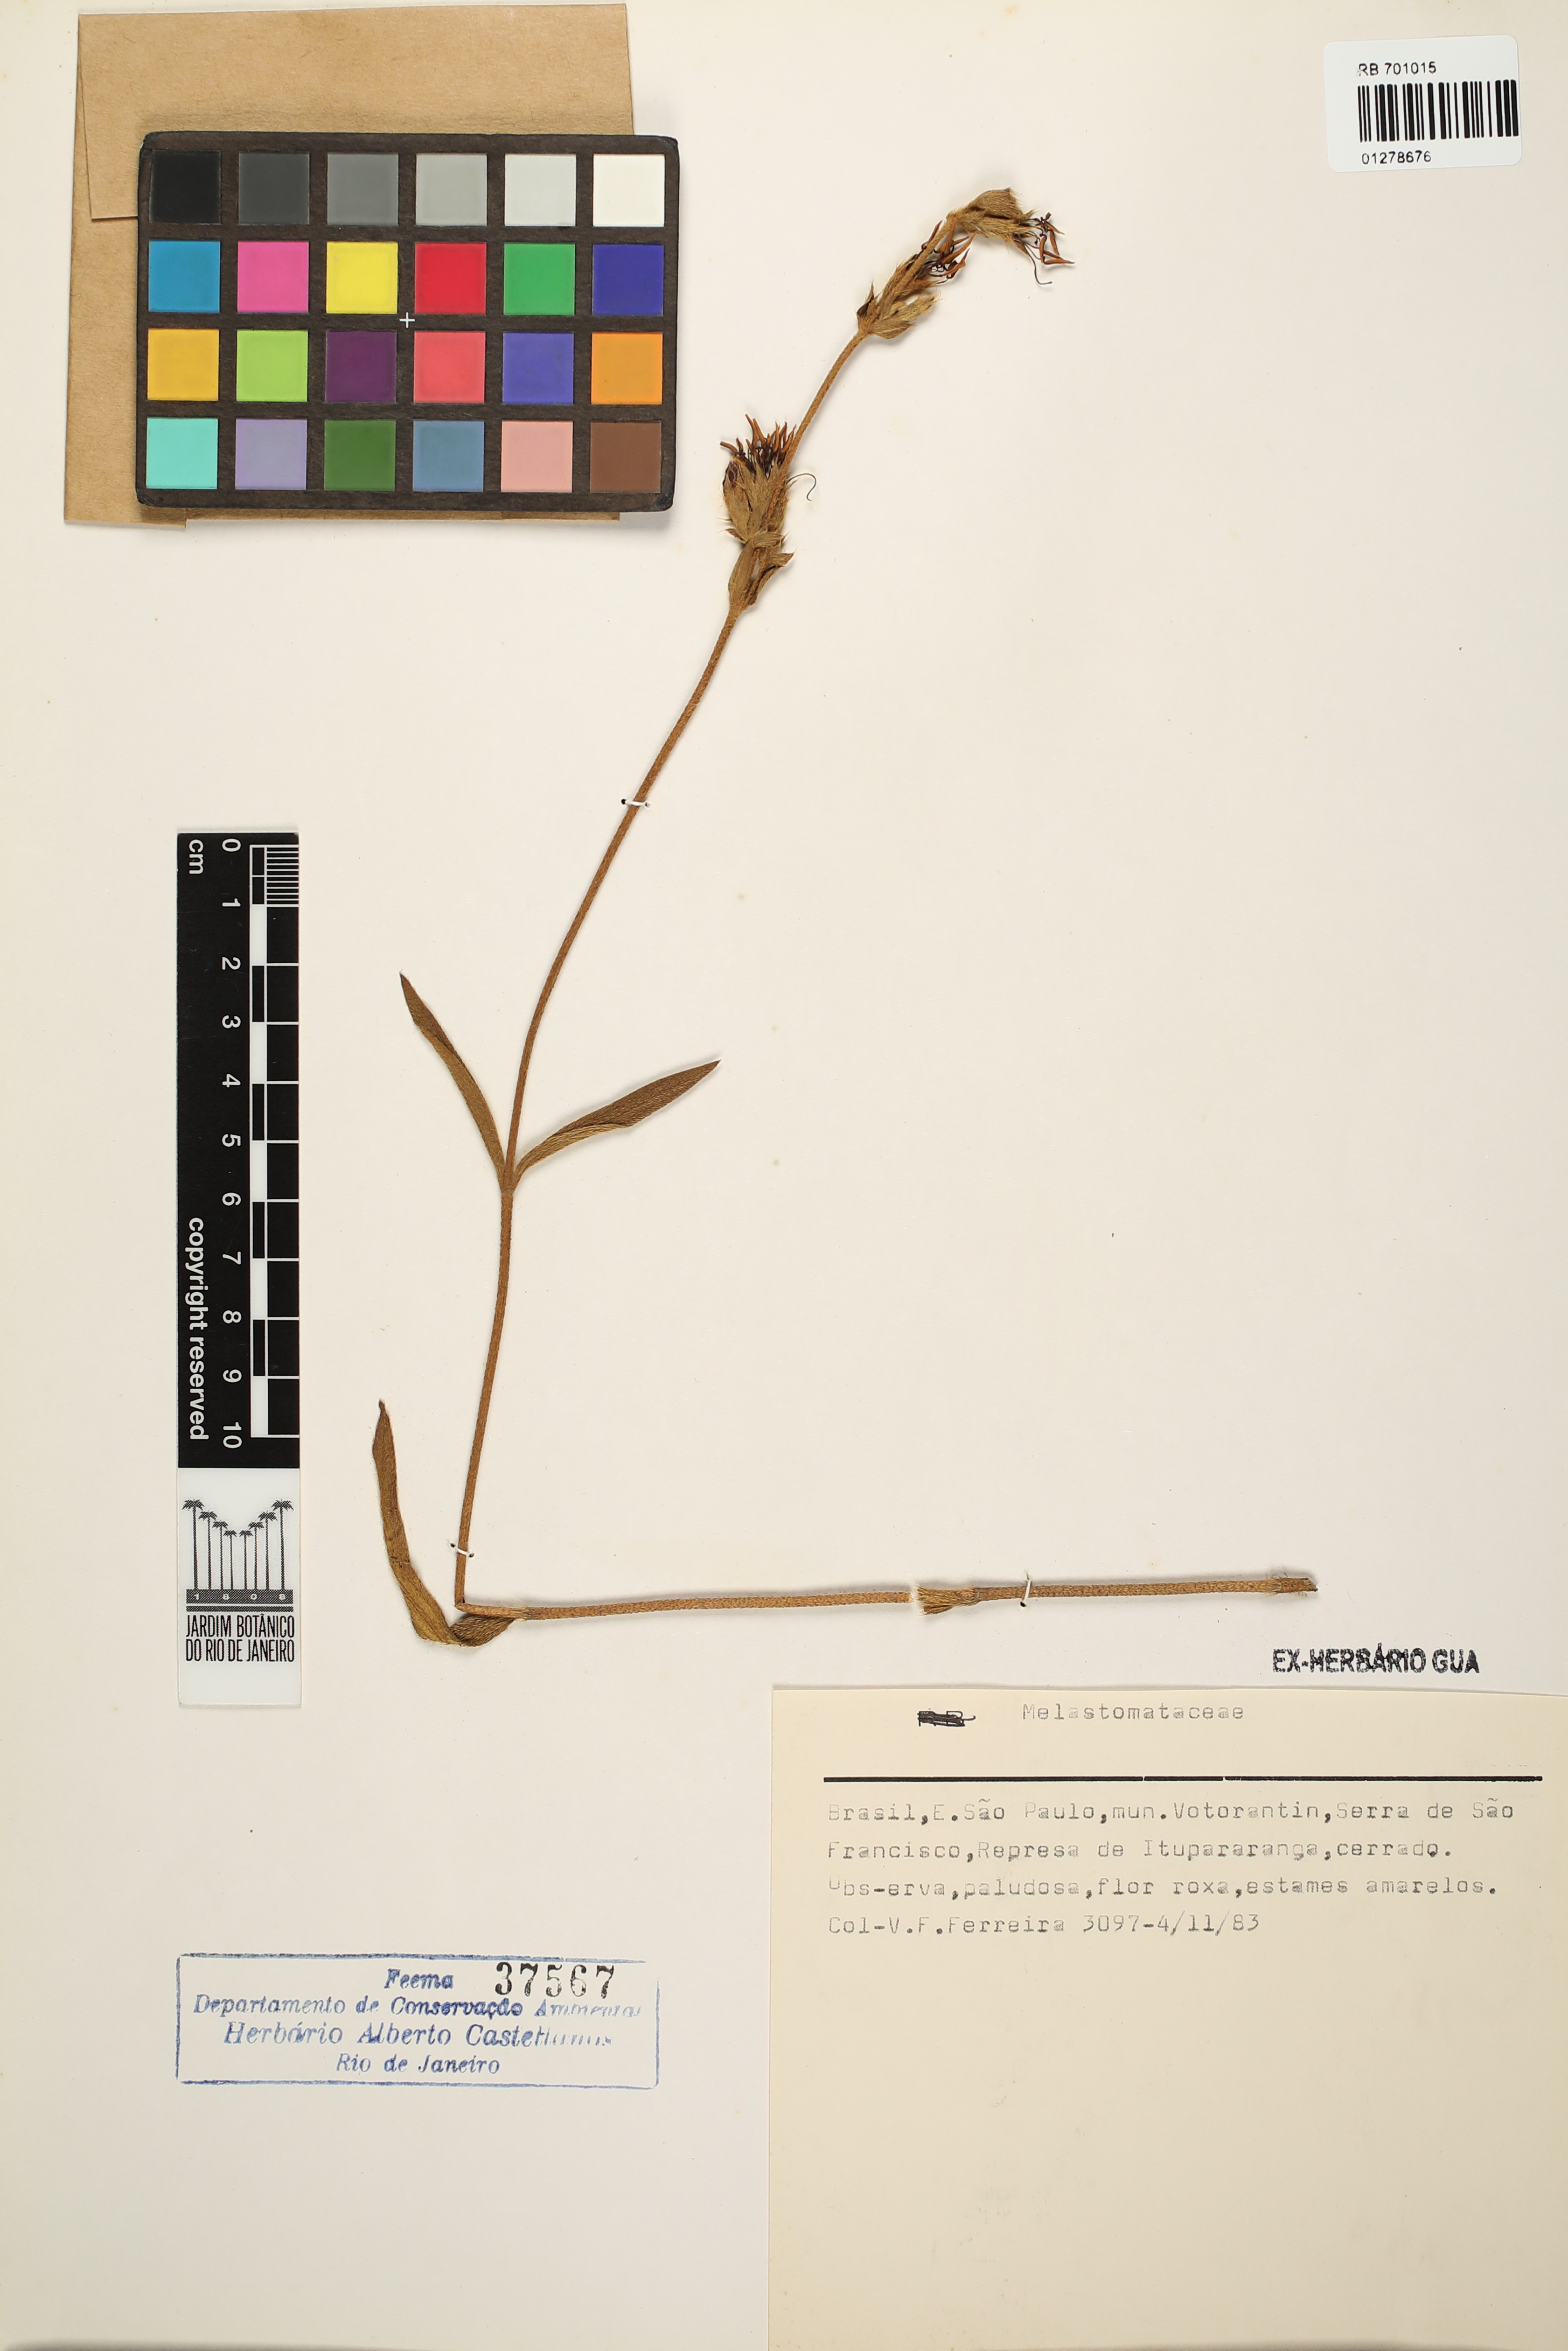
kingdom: Plantae
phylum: Tracheophyta
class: Magnoliopsida
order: Myrtales
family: Melastomataceae
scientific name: Melastomataceae
